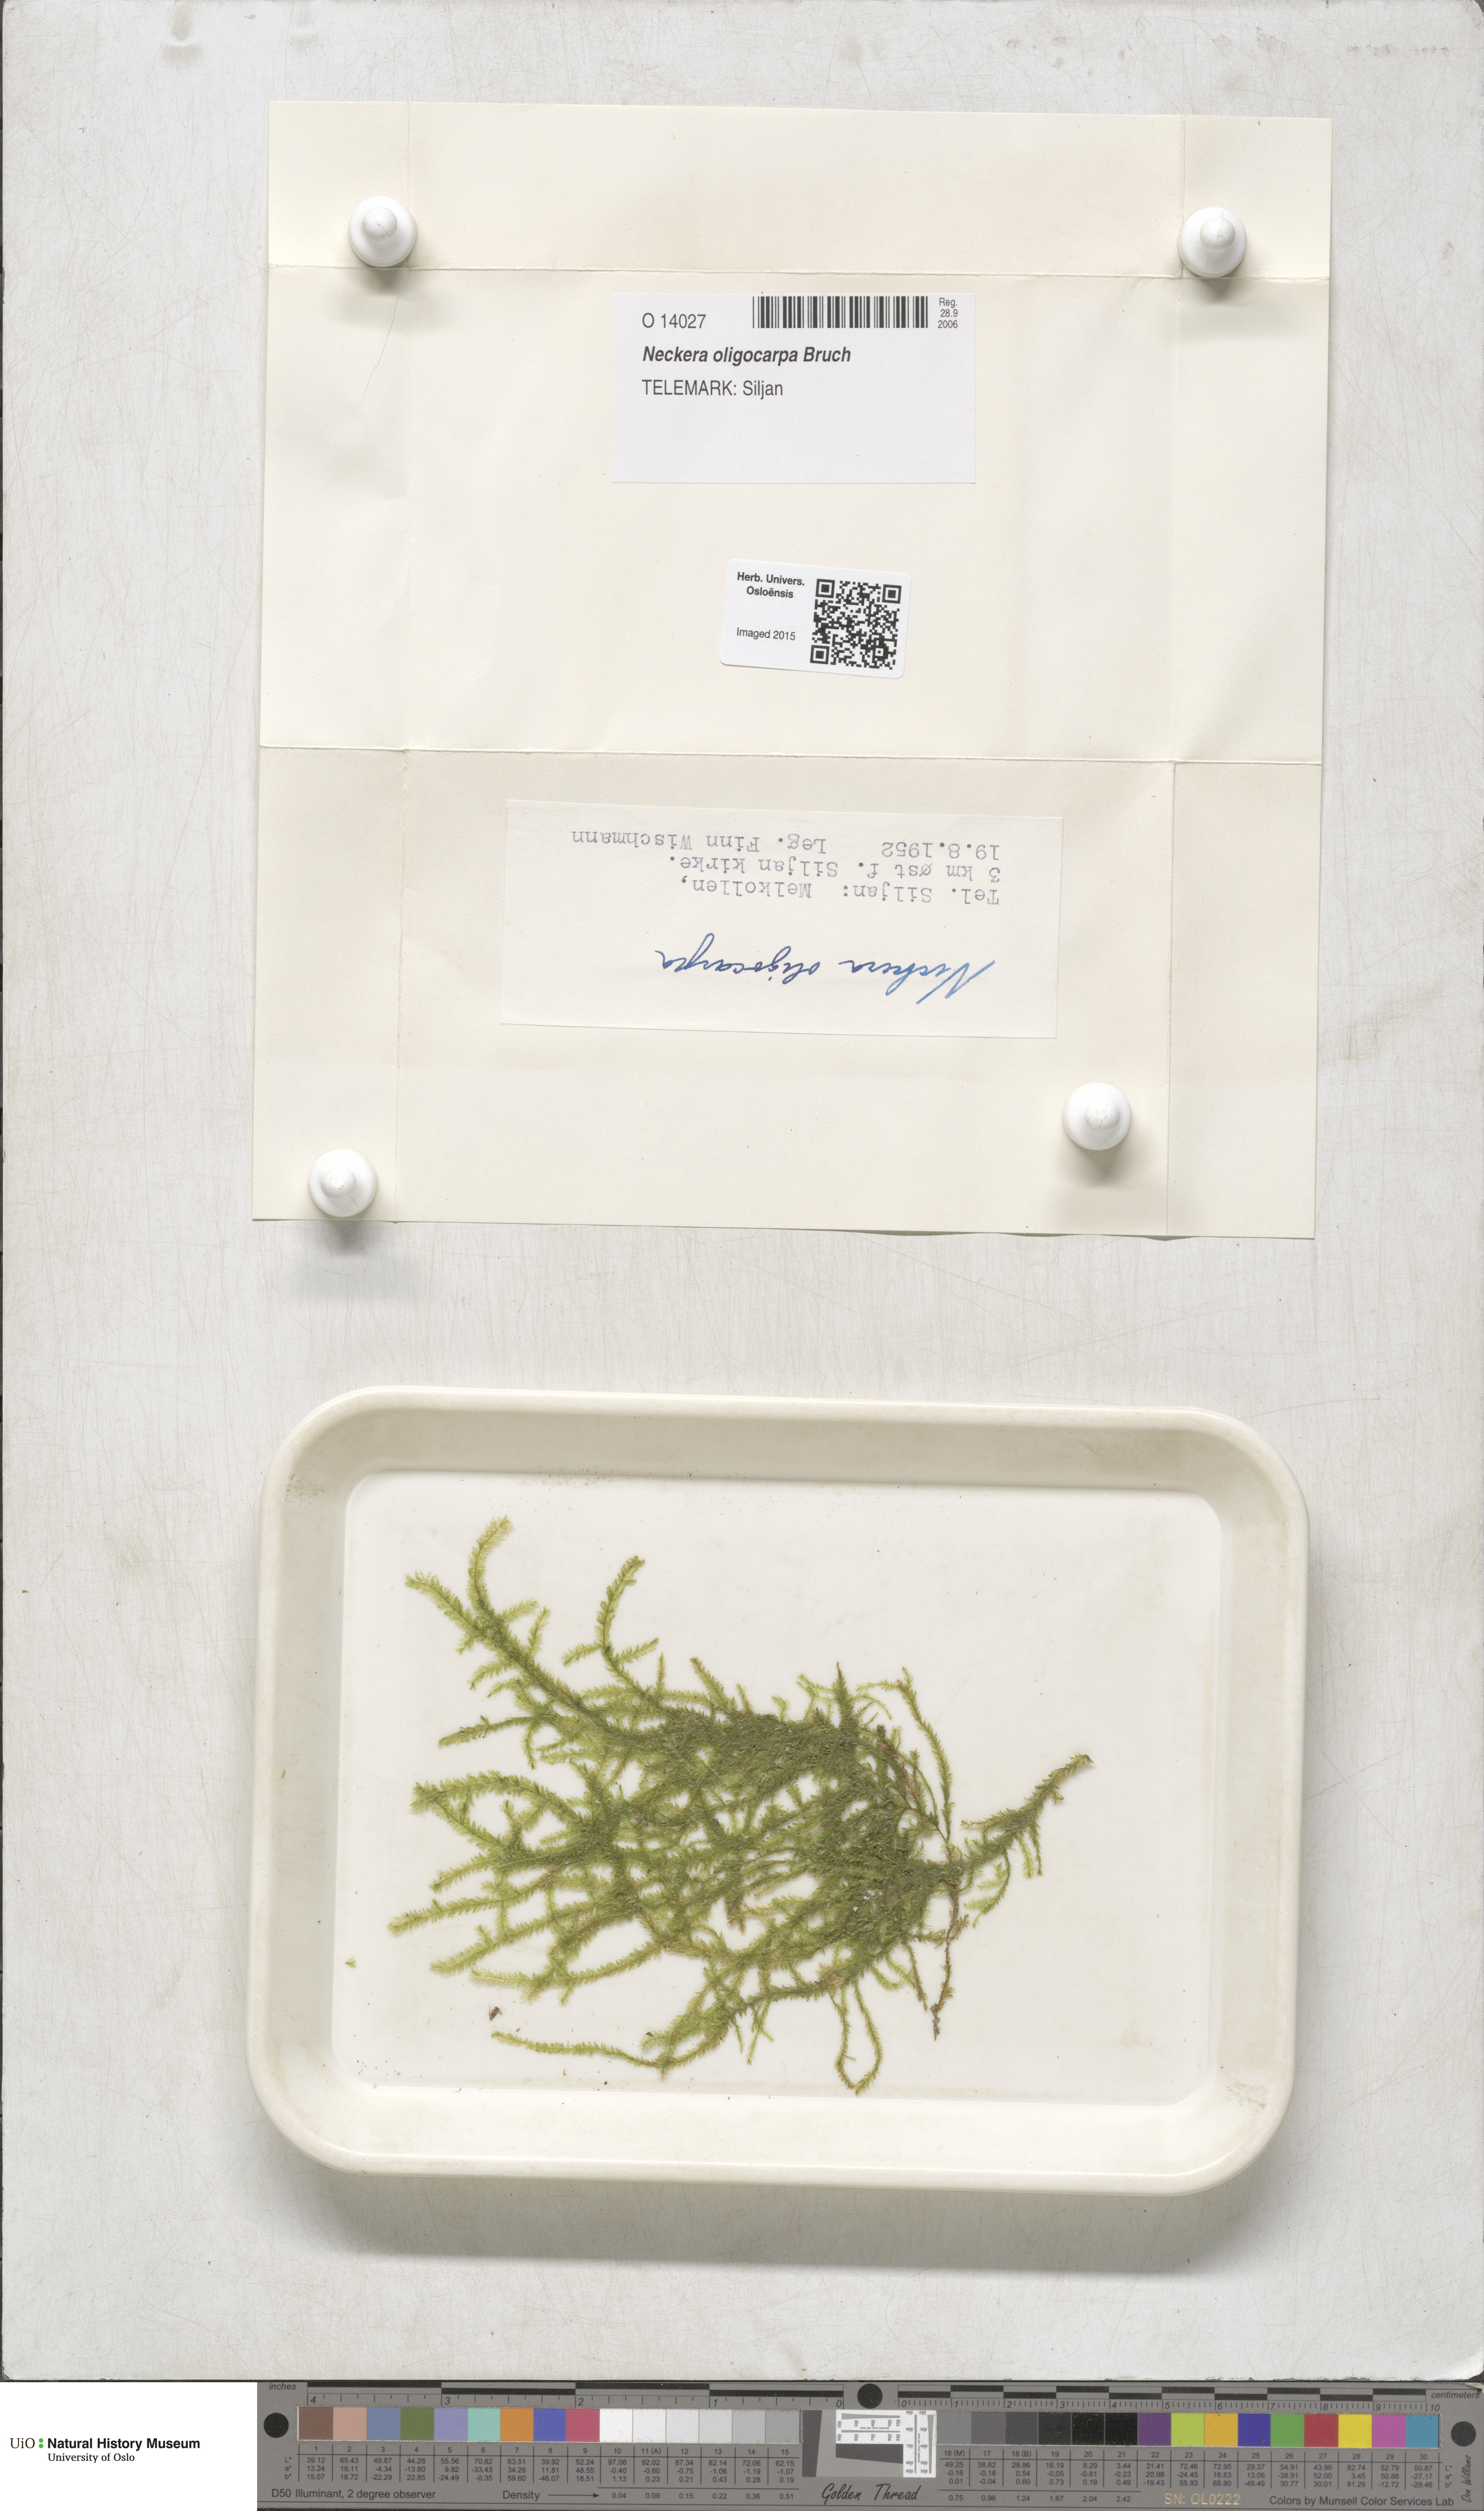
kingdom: Plantae
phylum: Bryophyta
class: Bryopsida
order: Hypnales
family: Neckeraceae
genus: Neckera
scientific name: Neckera oligocarpa
